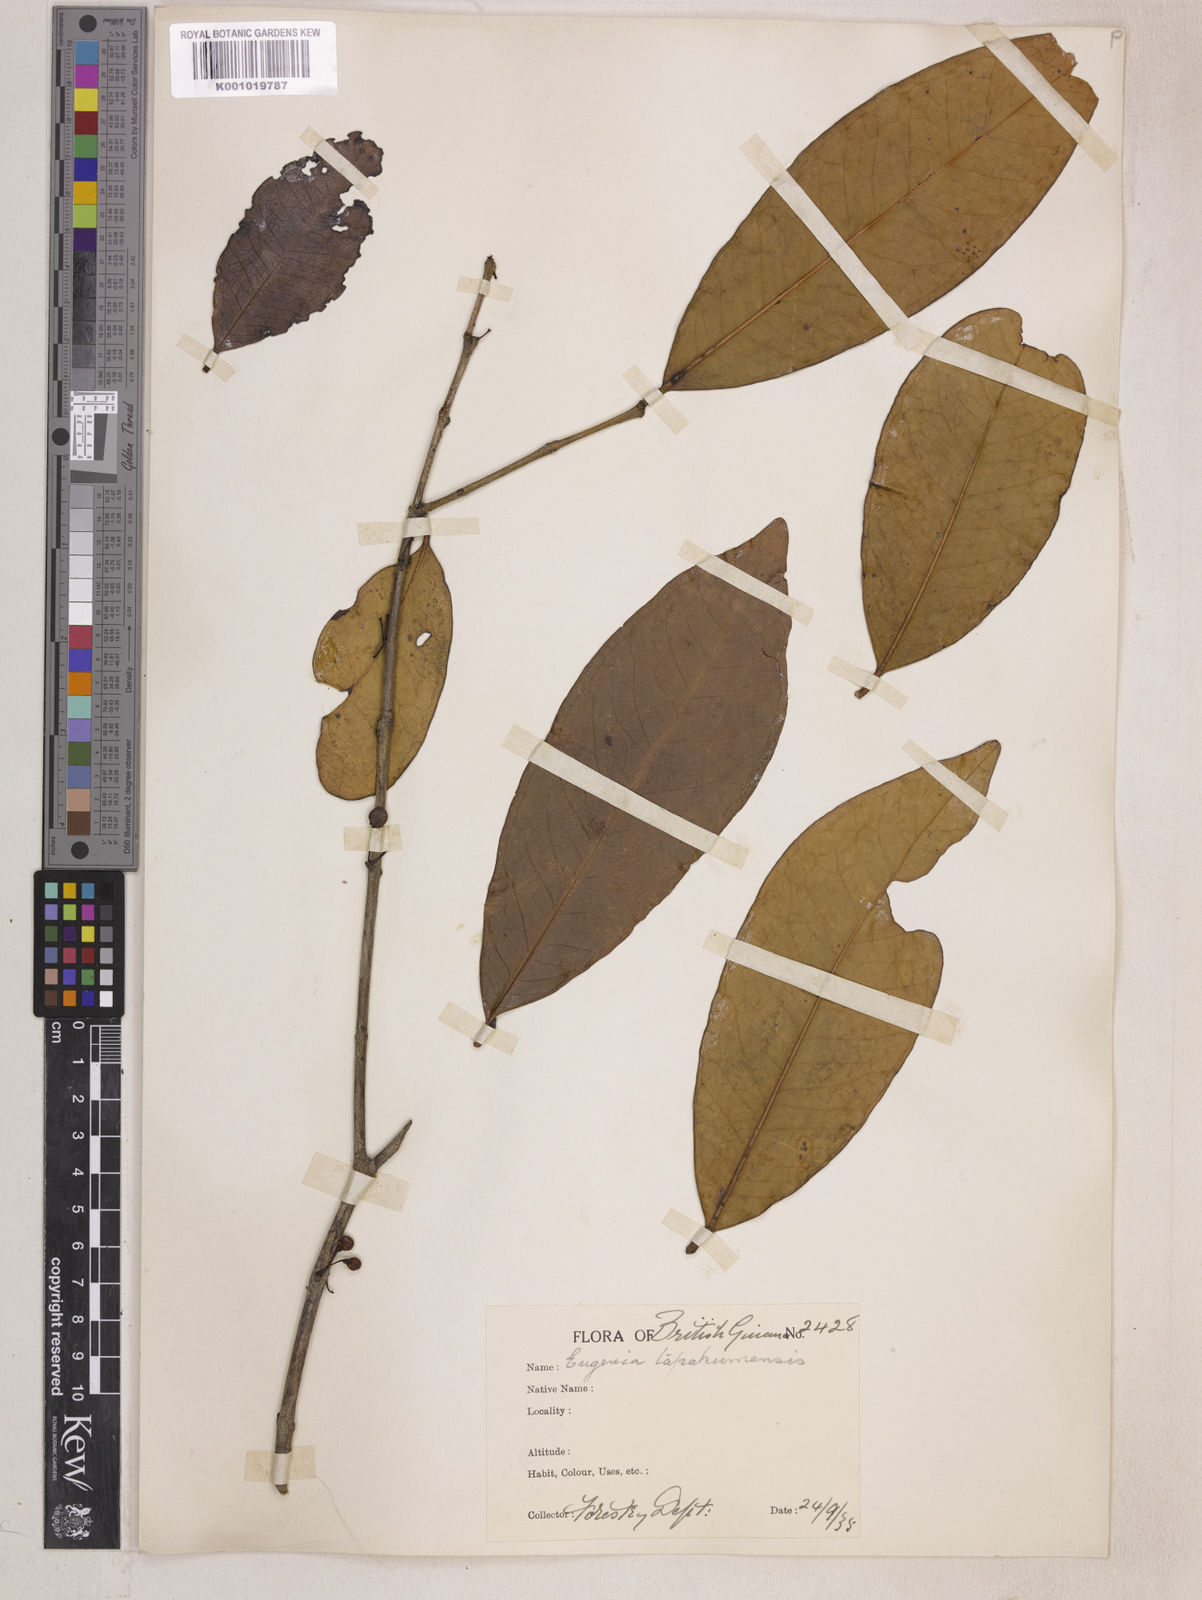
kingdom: Plantae
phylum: Tracheophyta
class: Magnoliopsida
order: Myrtales
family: Myrtaceae
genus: Eugenia
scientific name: Eugenia stictopetala
